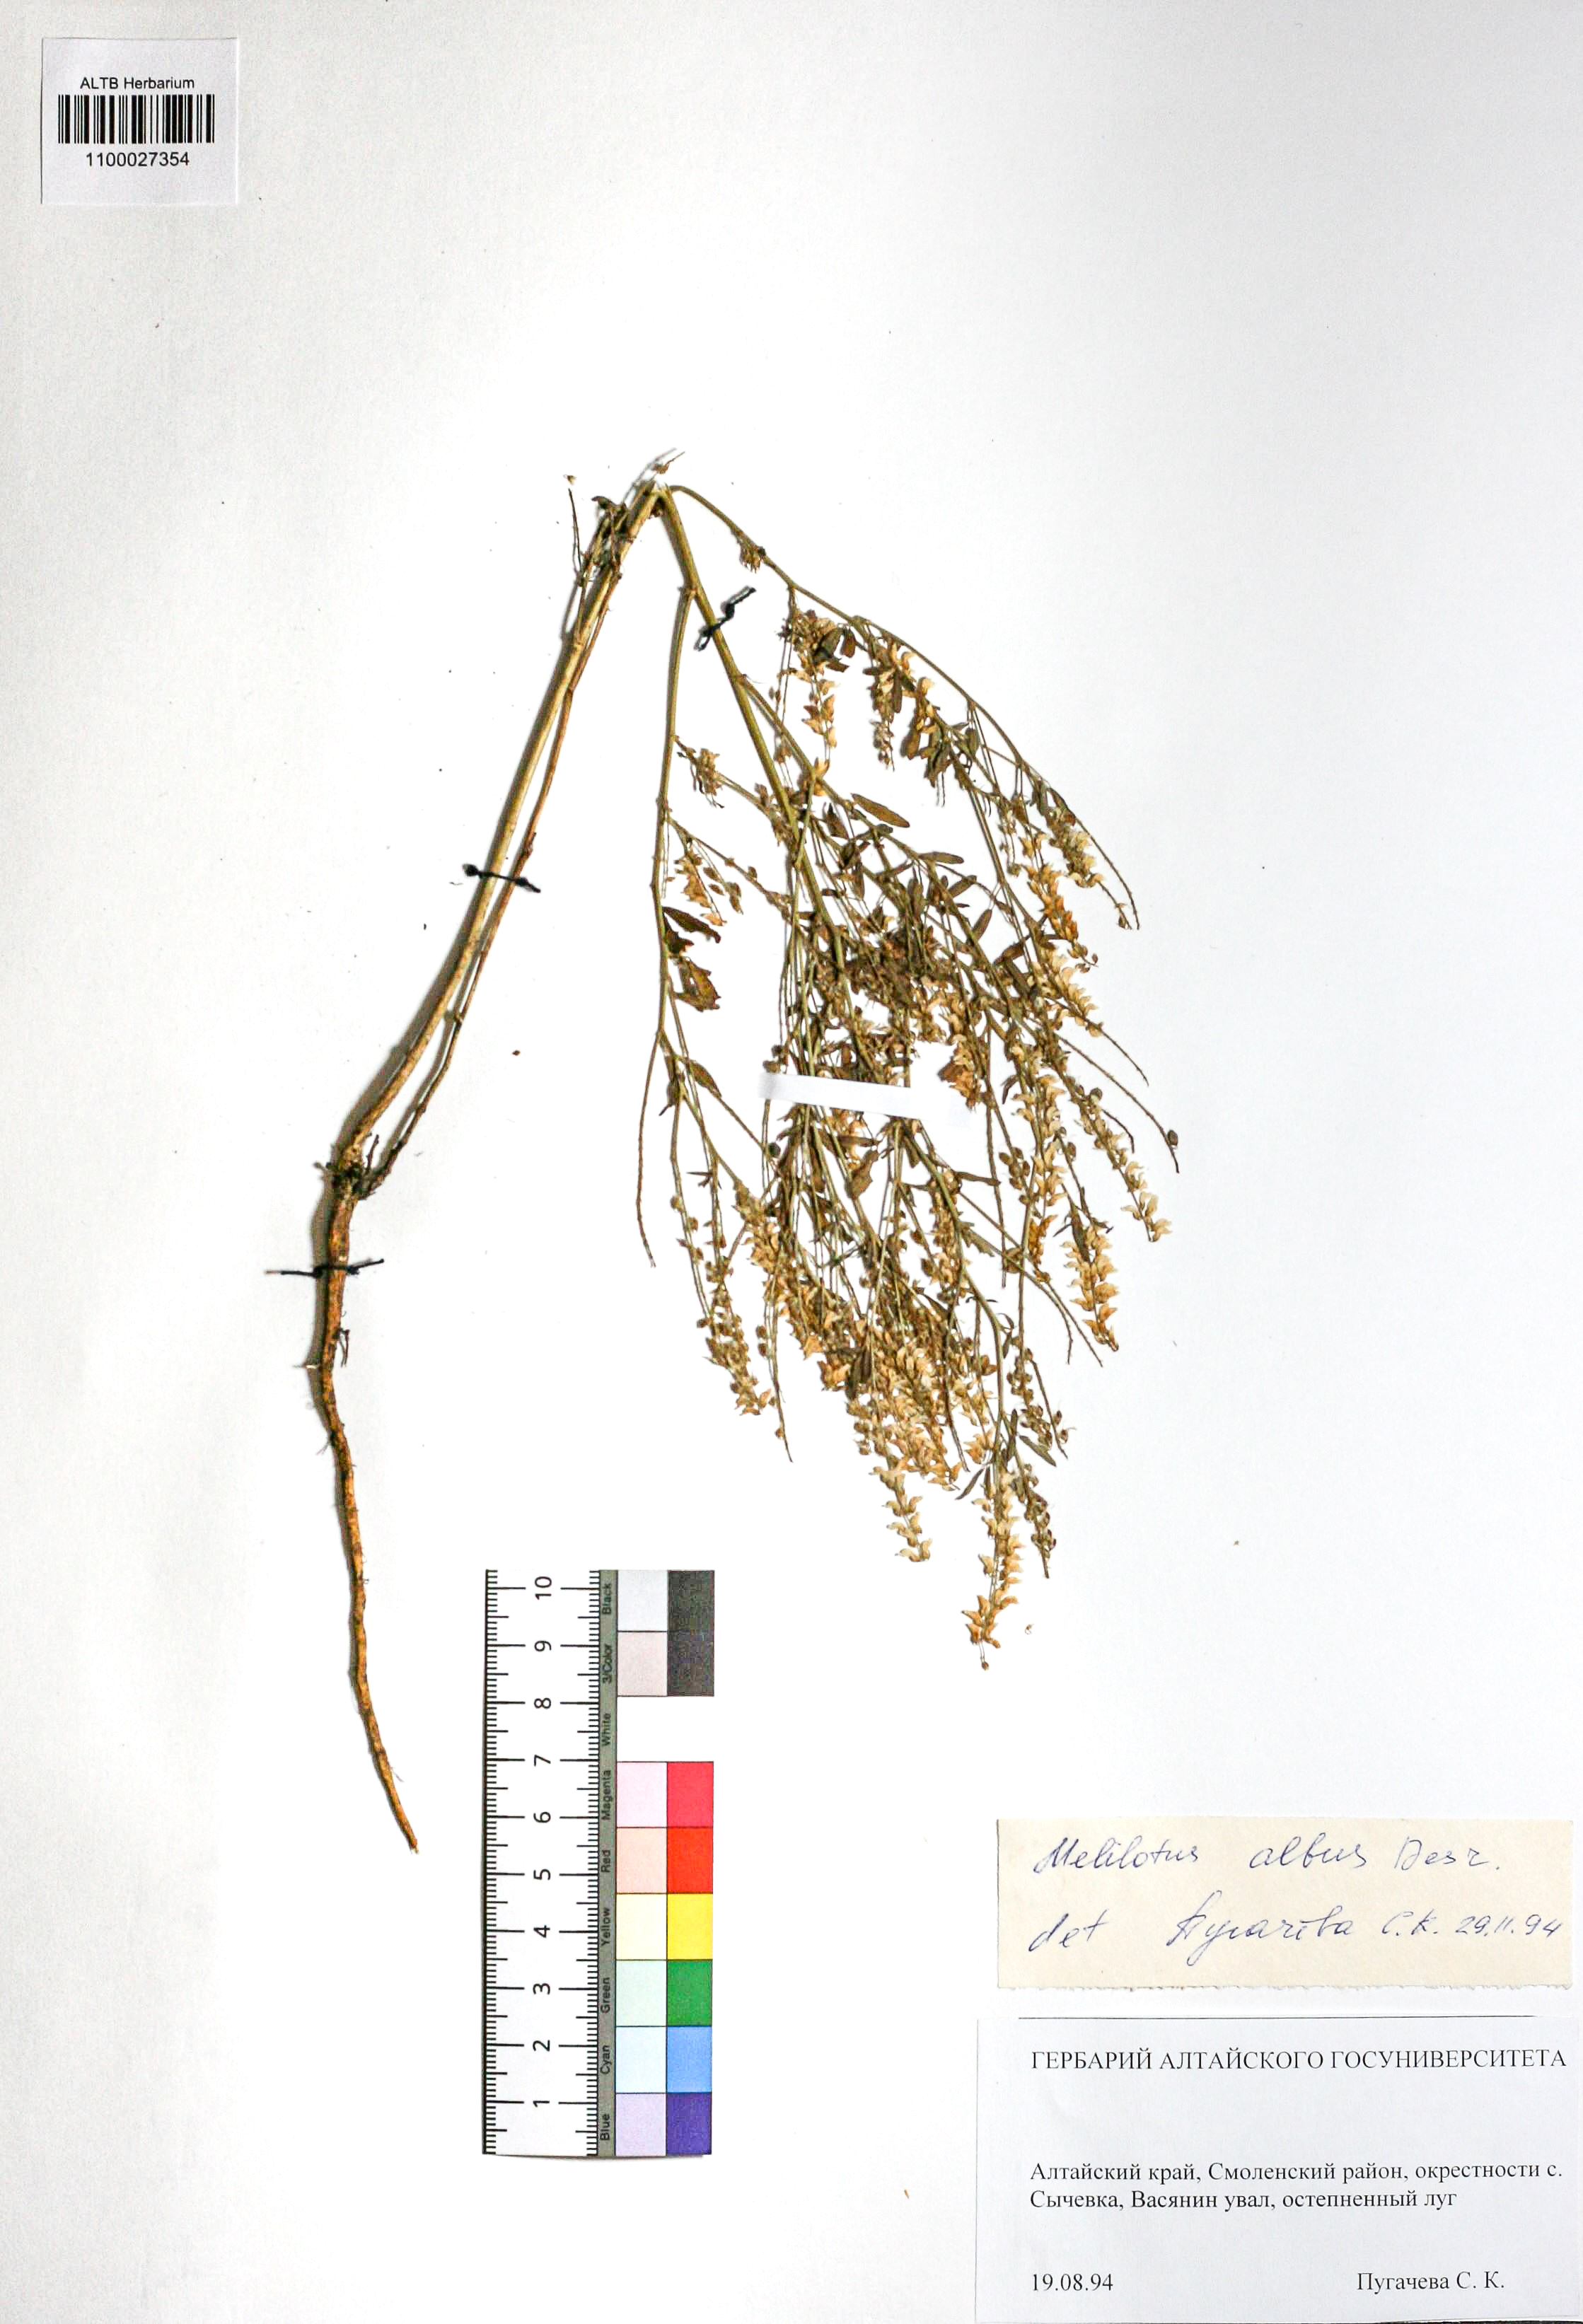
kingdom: Plantae
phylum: Tracheophyta
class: Magnoliopsida
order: Fabales
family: Fabaceae
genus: Melilotus
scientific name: Melilotus albus
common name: White melilot
